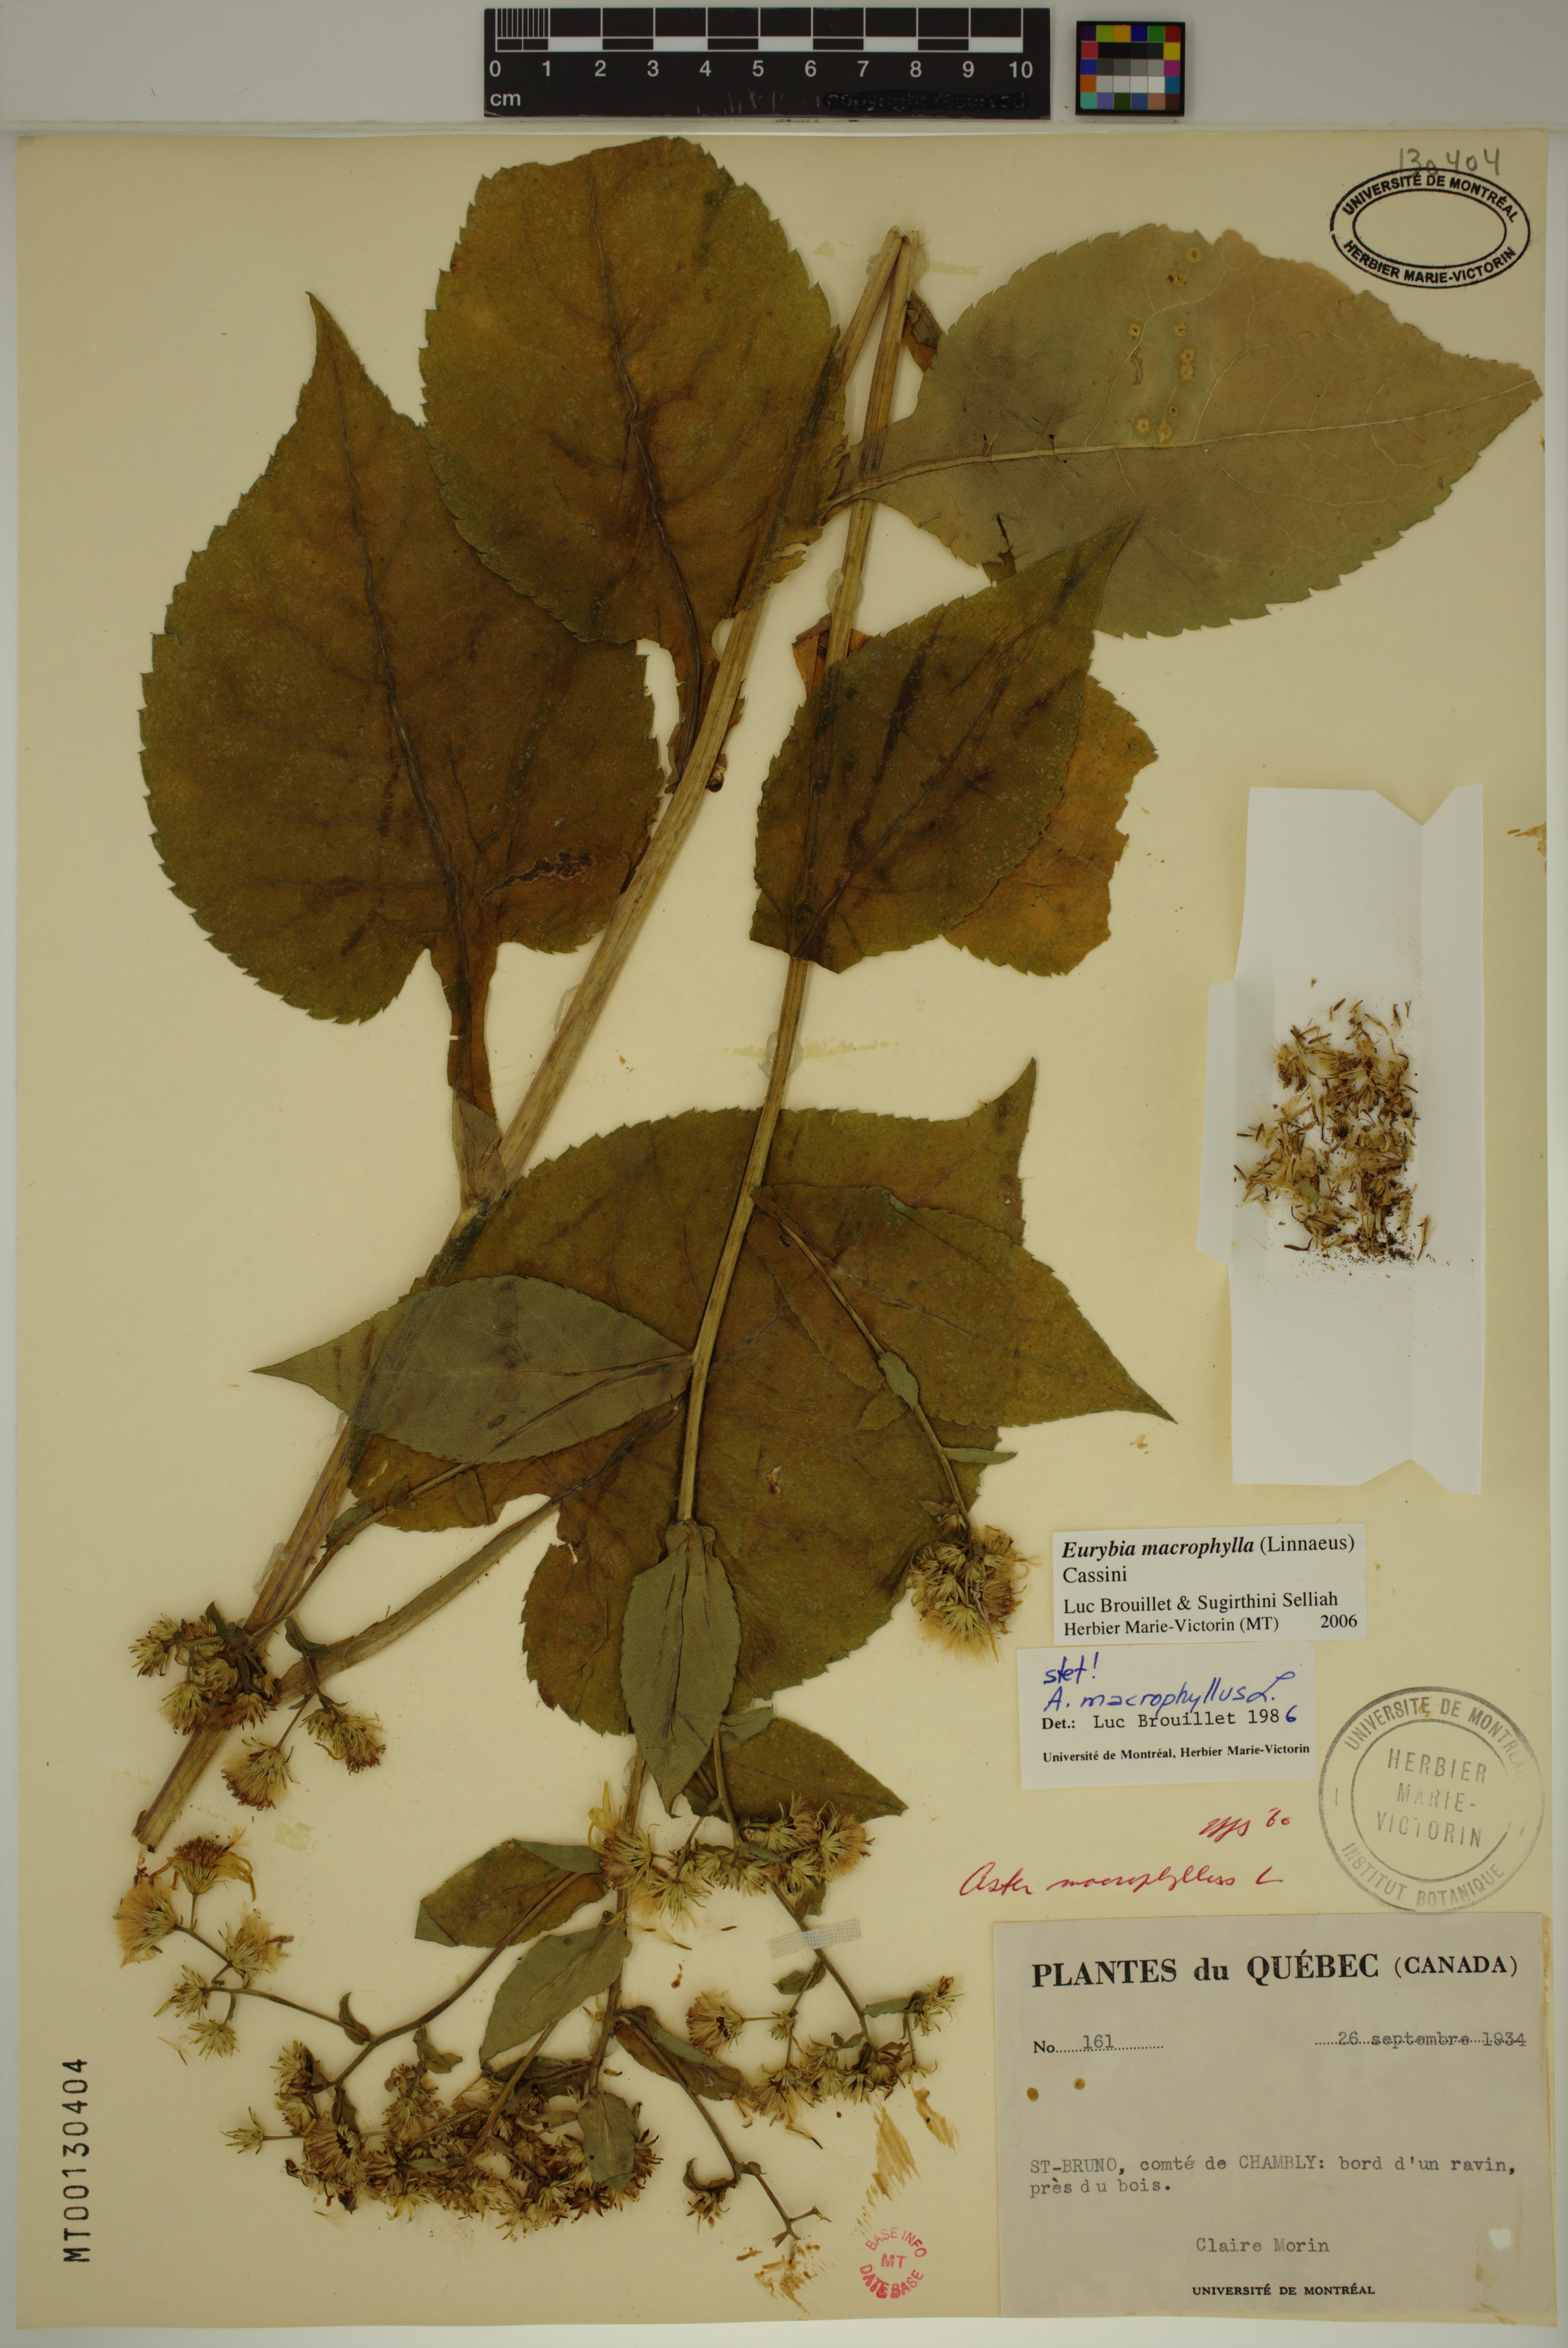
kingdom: Plantae
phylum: Tracheophyta
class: Magnoliopsida
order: Asterales
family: Asteraceae
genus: Eurybia
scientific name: Eurybia macrophylla
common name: Big-leaved aster
